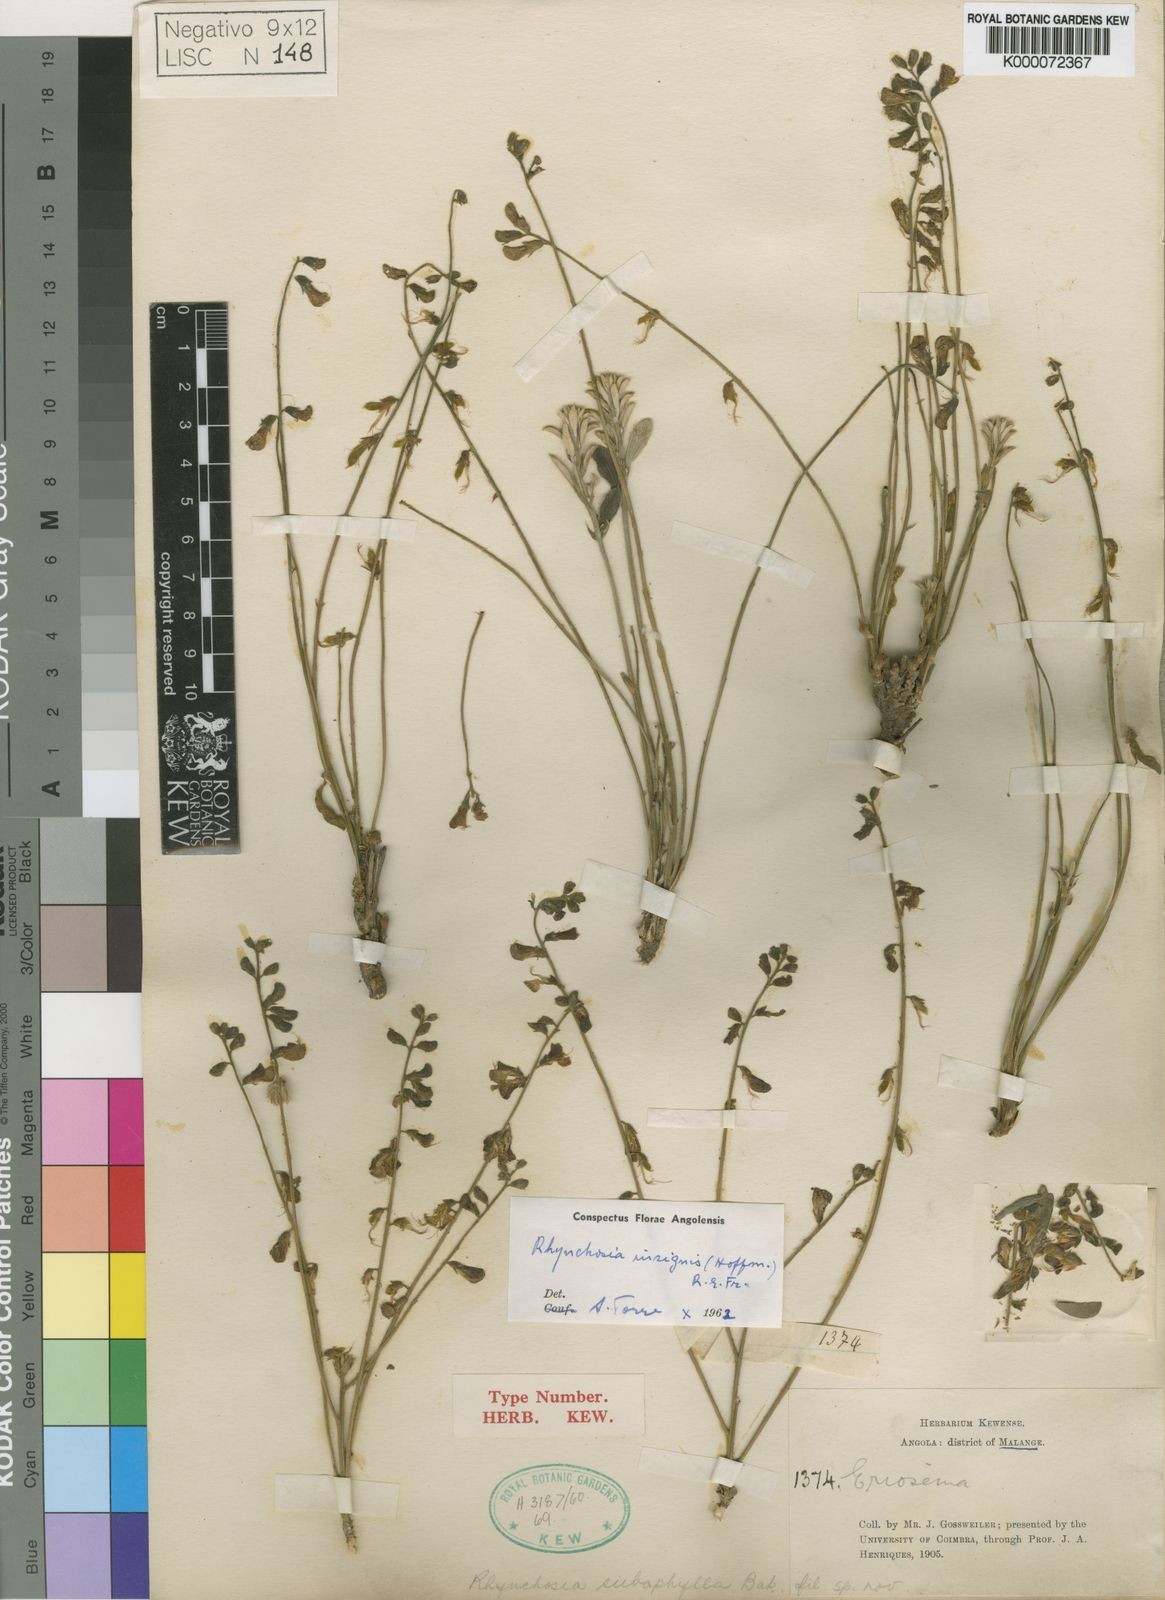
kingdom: Plantae
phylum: Tracheophyta
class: Magnoliopsida
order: Fabales
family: Fabaceae
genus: Rhynchosia
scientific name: Rhynchosia insignis
